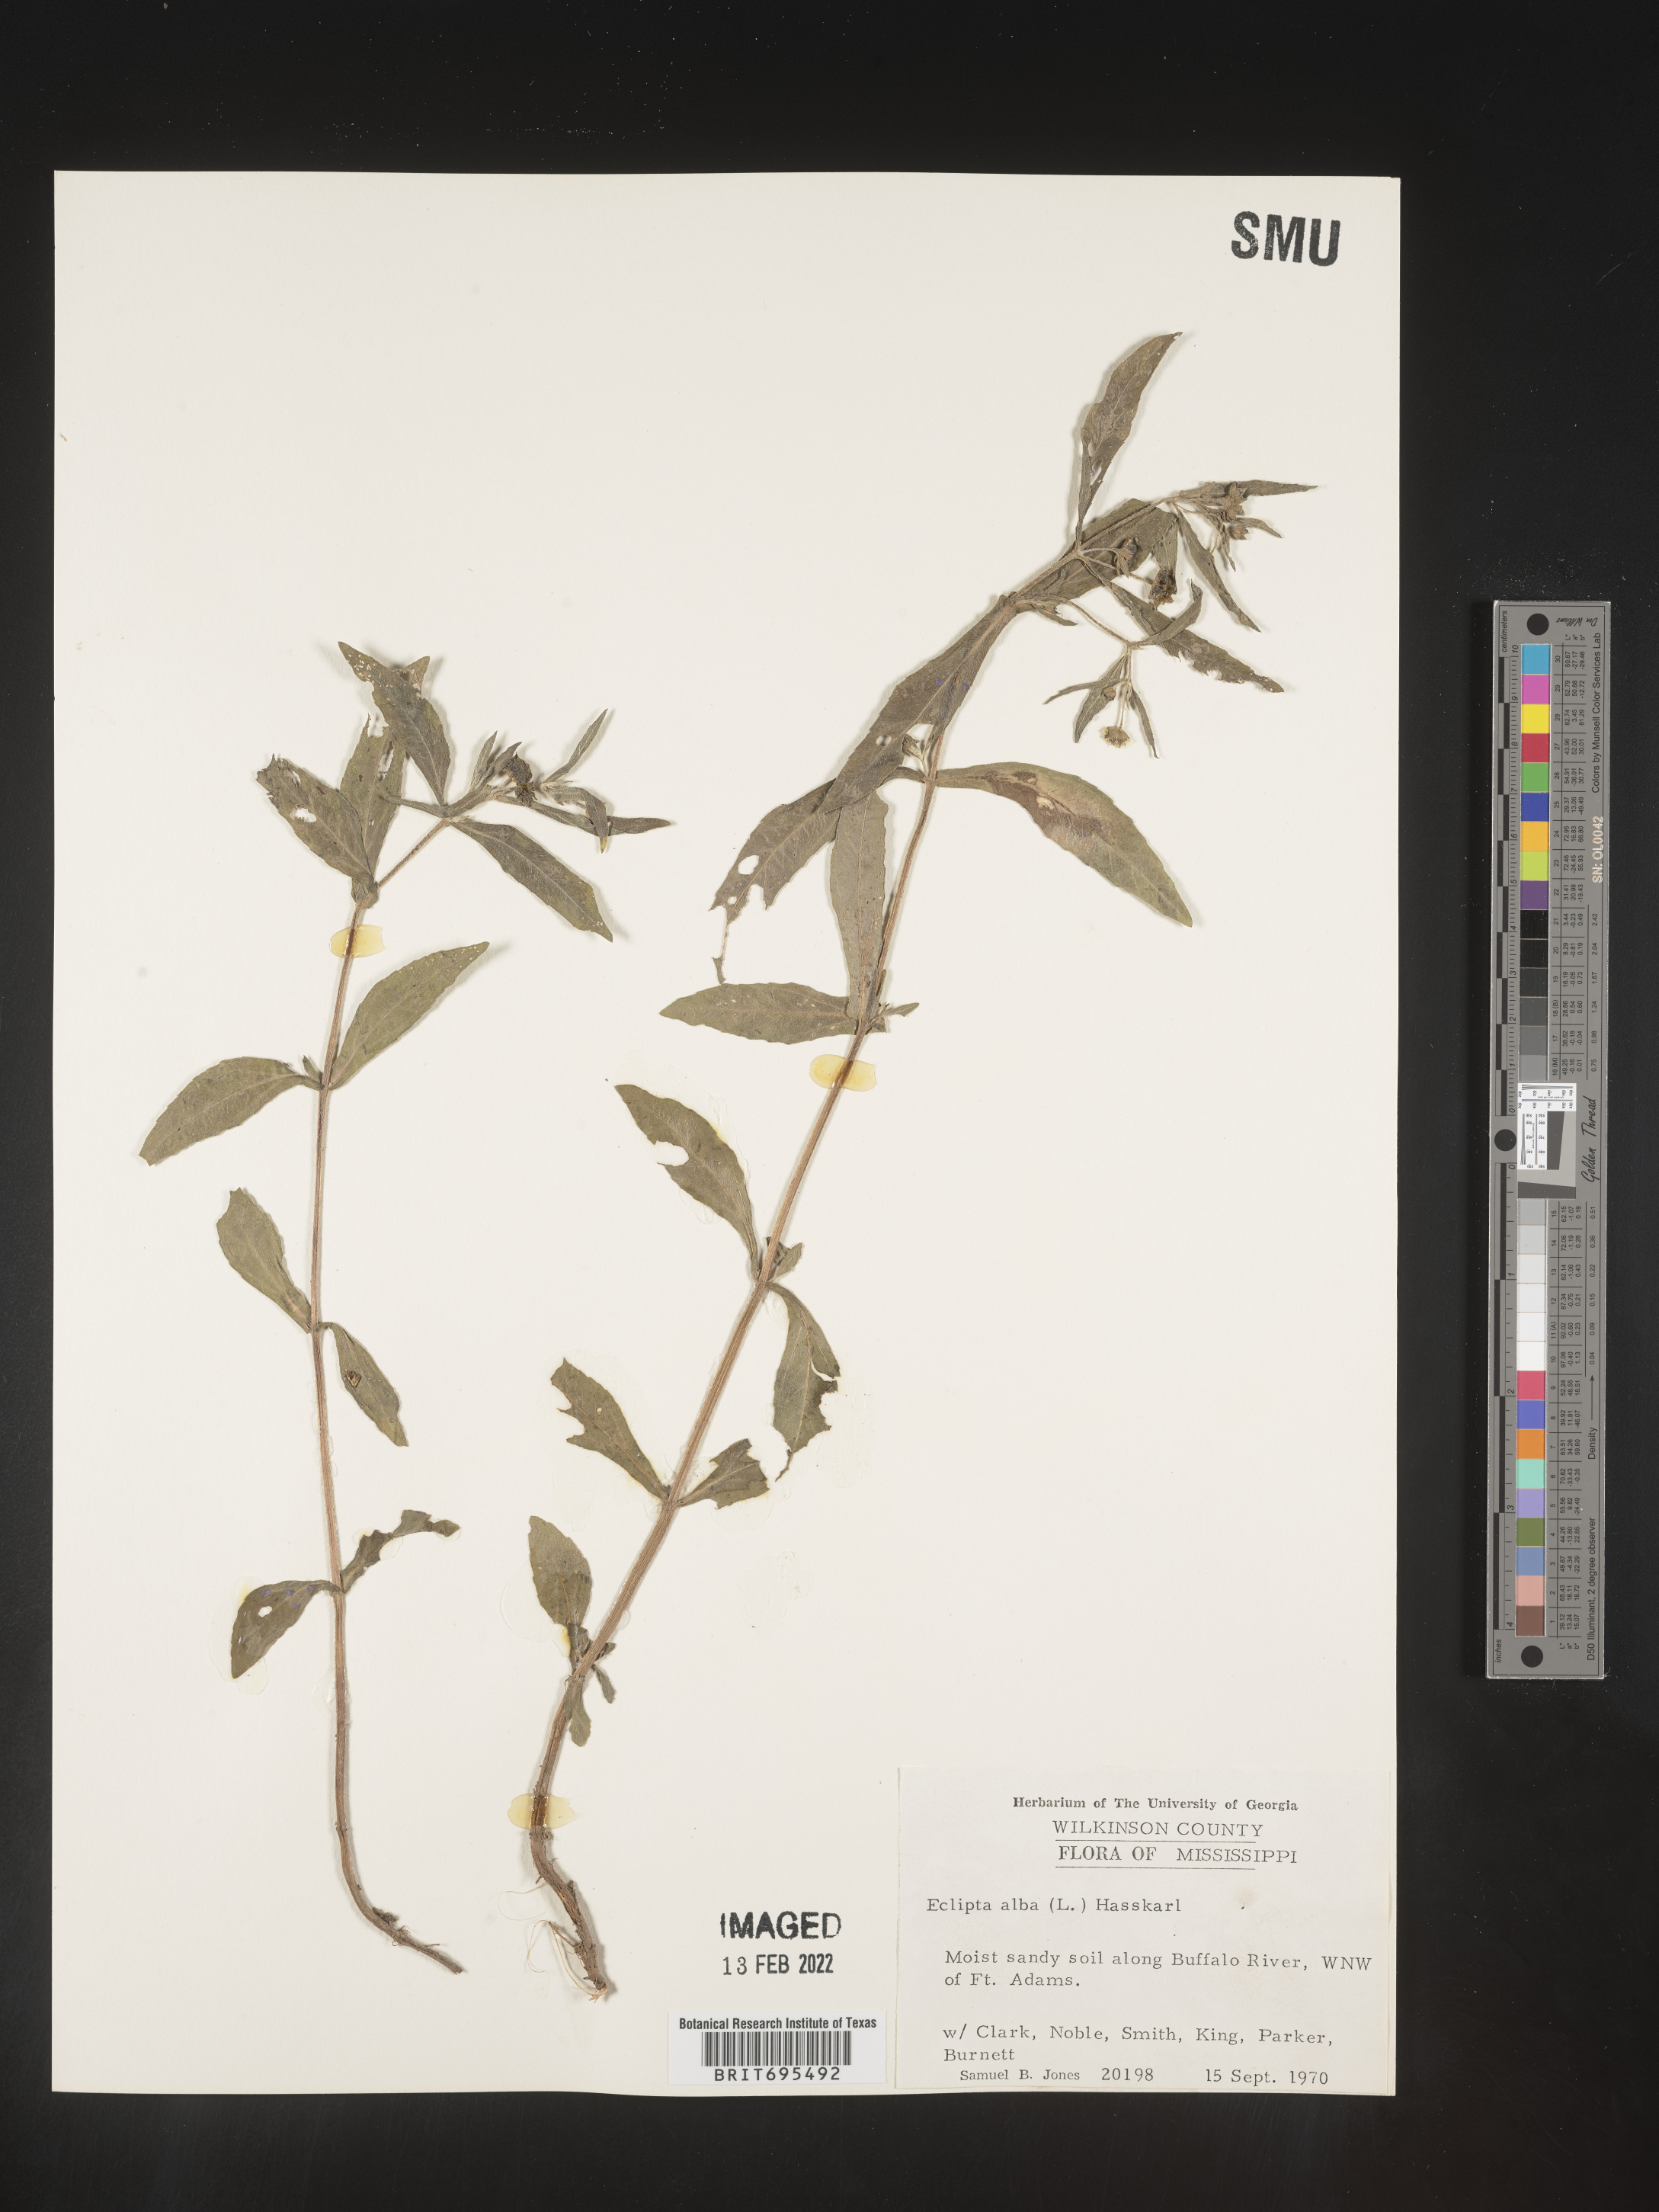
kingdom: Plantae
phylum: Tracheophyta
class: Magnoliopsida
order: Asterales
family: Asteraceae
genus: Eclipta
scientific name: Eclipta alba
